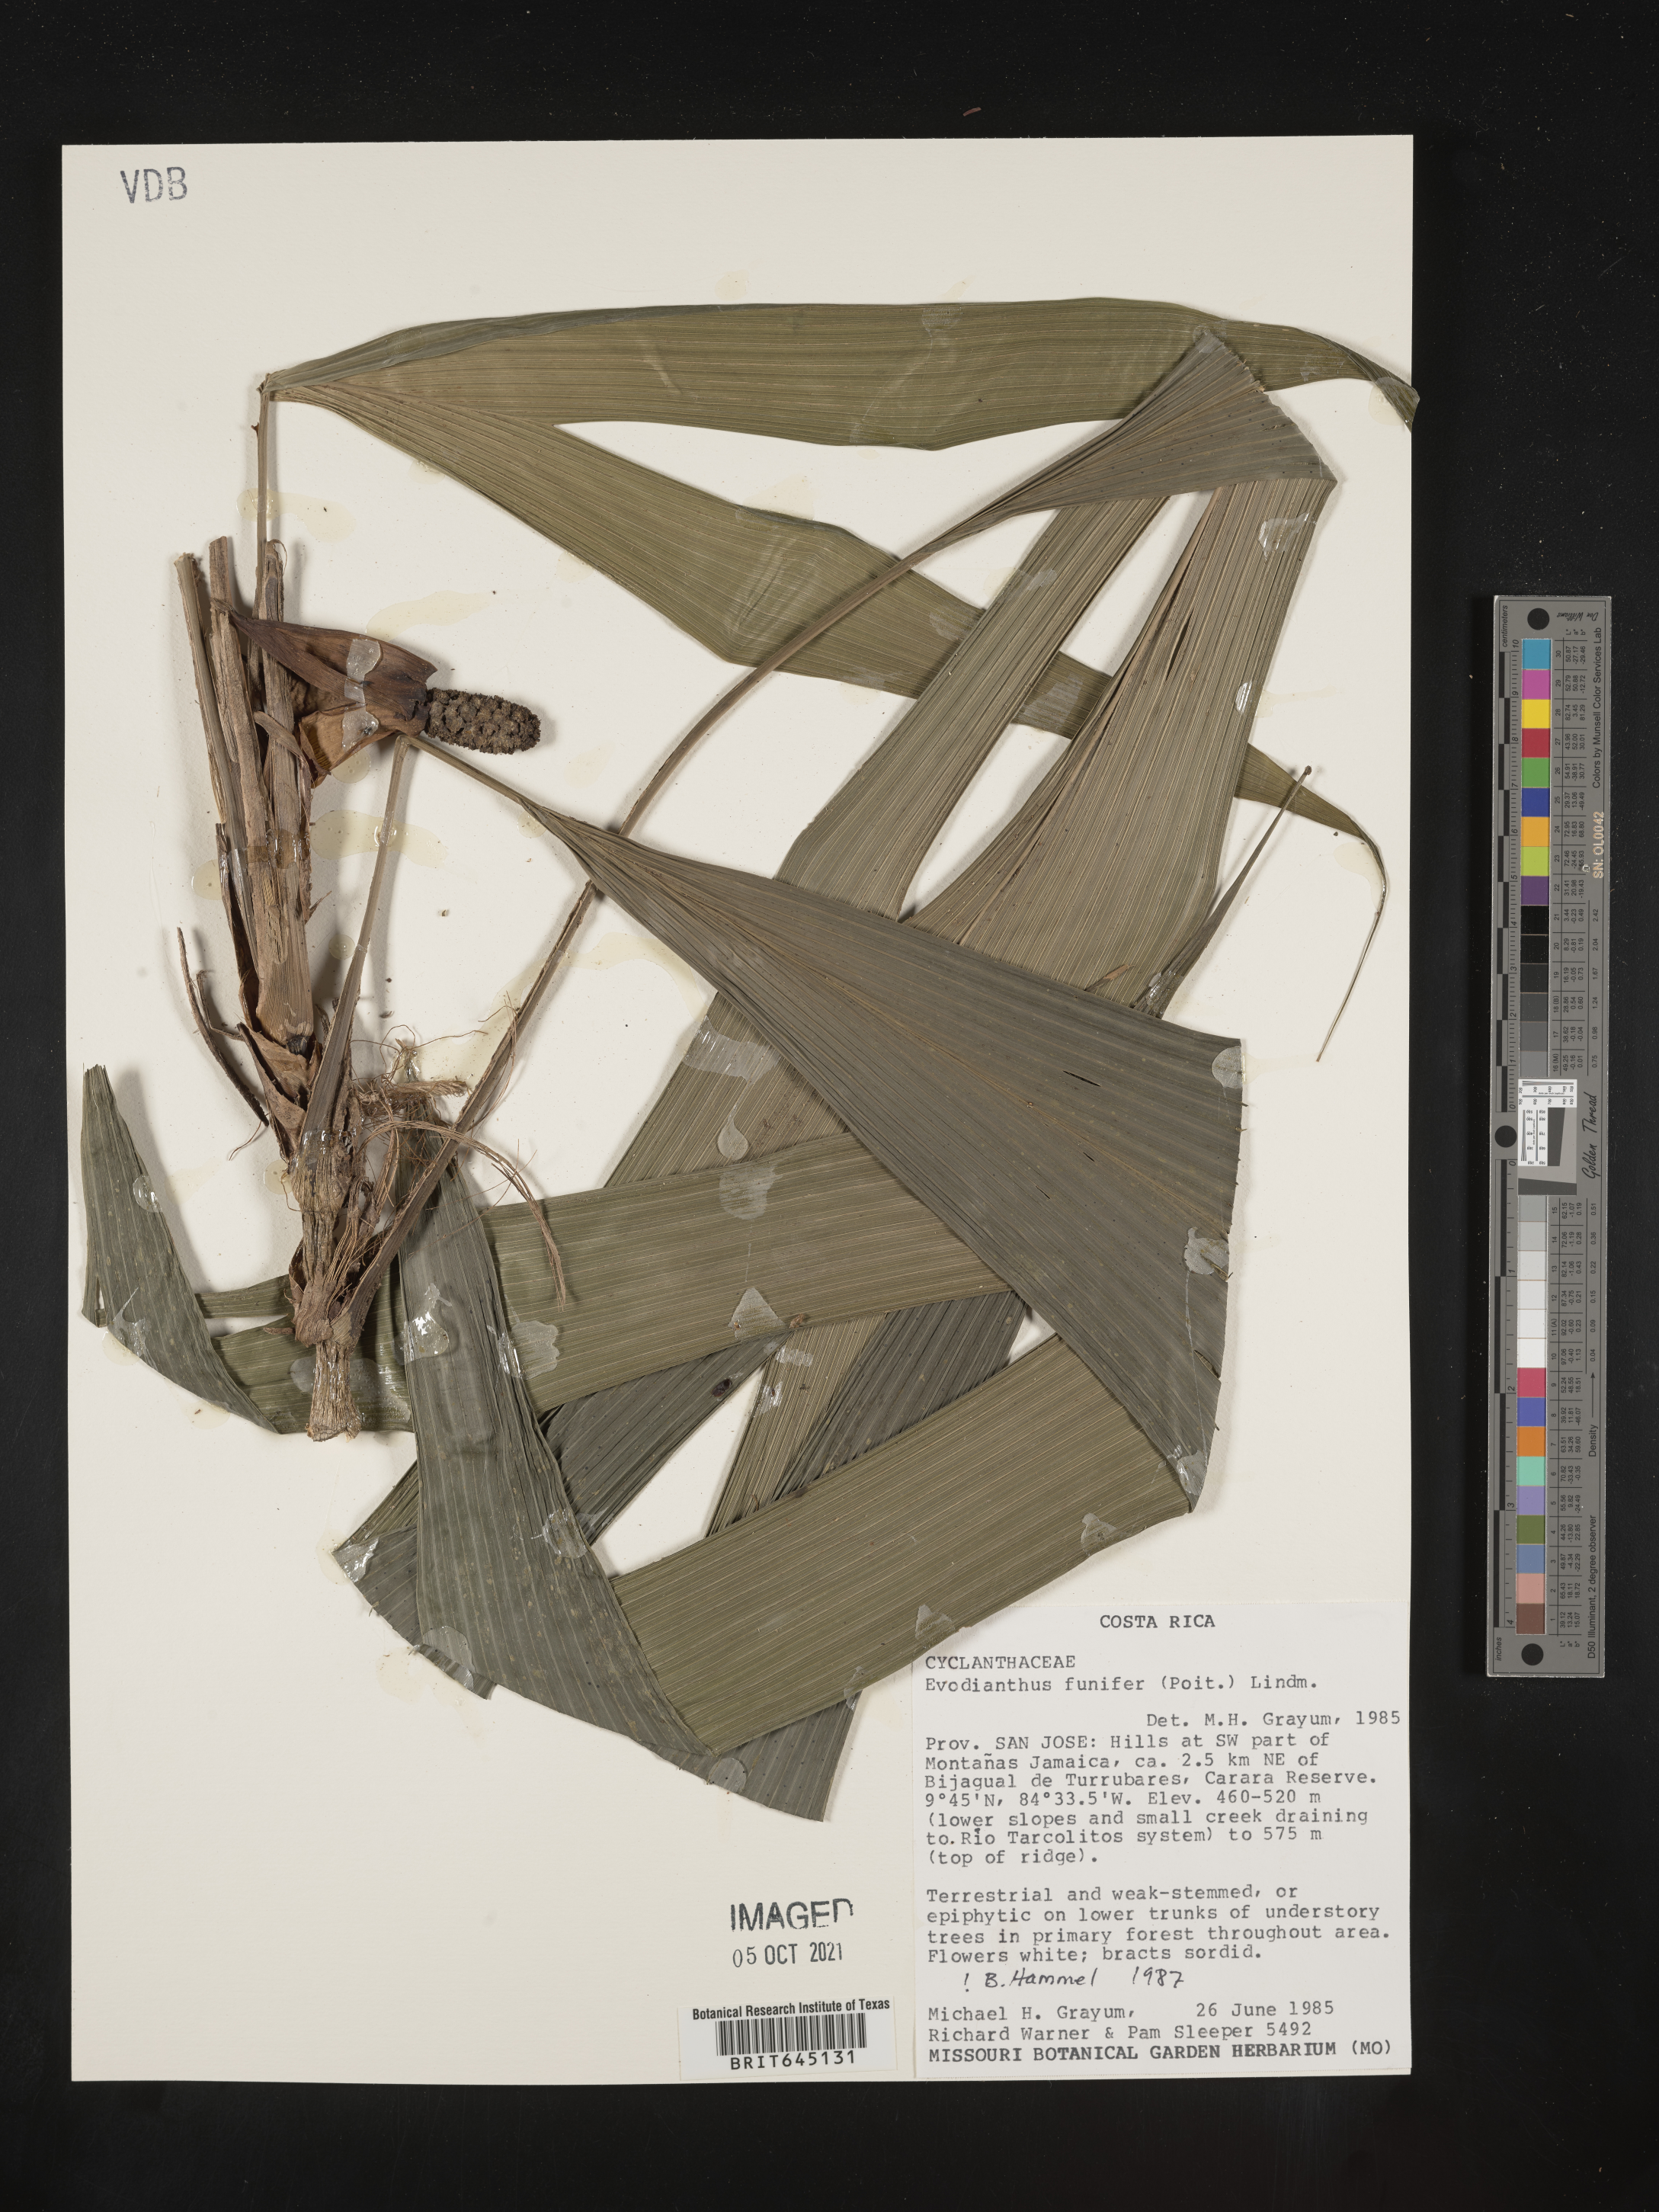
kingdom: Plantae
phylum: Tracheophyta
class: Liliopsida
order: Pandanales
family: Cyclanthaceae
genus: Evodianthus
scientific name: Evodianthus funifer
